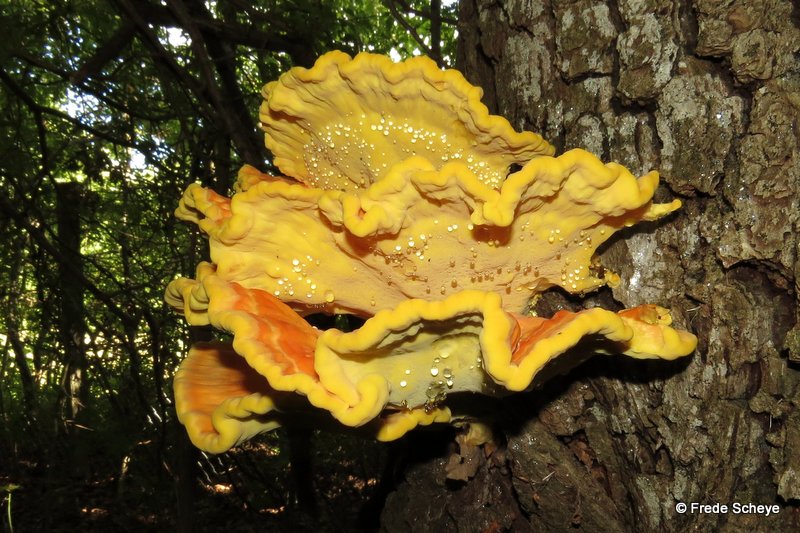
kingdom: Fungi
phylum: Basidiomycota
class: Agaricomycetes
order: Polyporales
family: Laetiporaceae
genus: Laetiporus
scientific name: Laetiporus sulphureus
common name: svovlporesvamp
